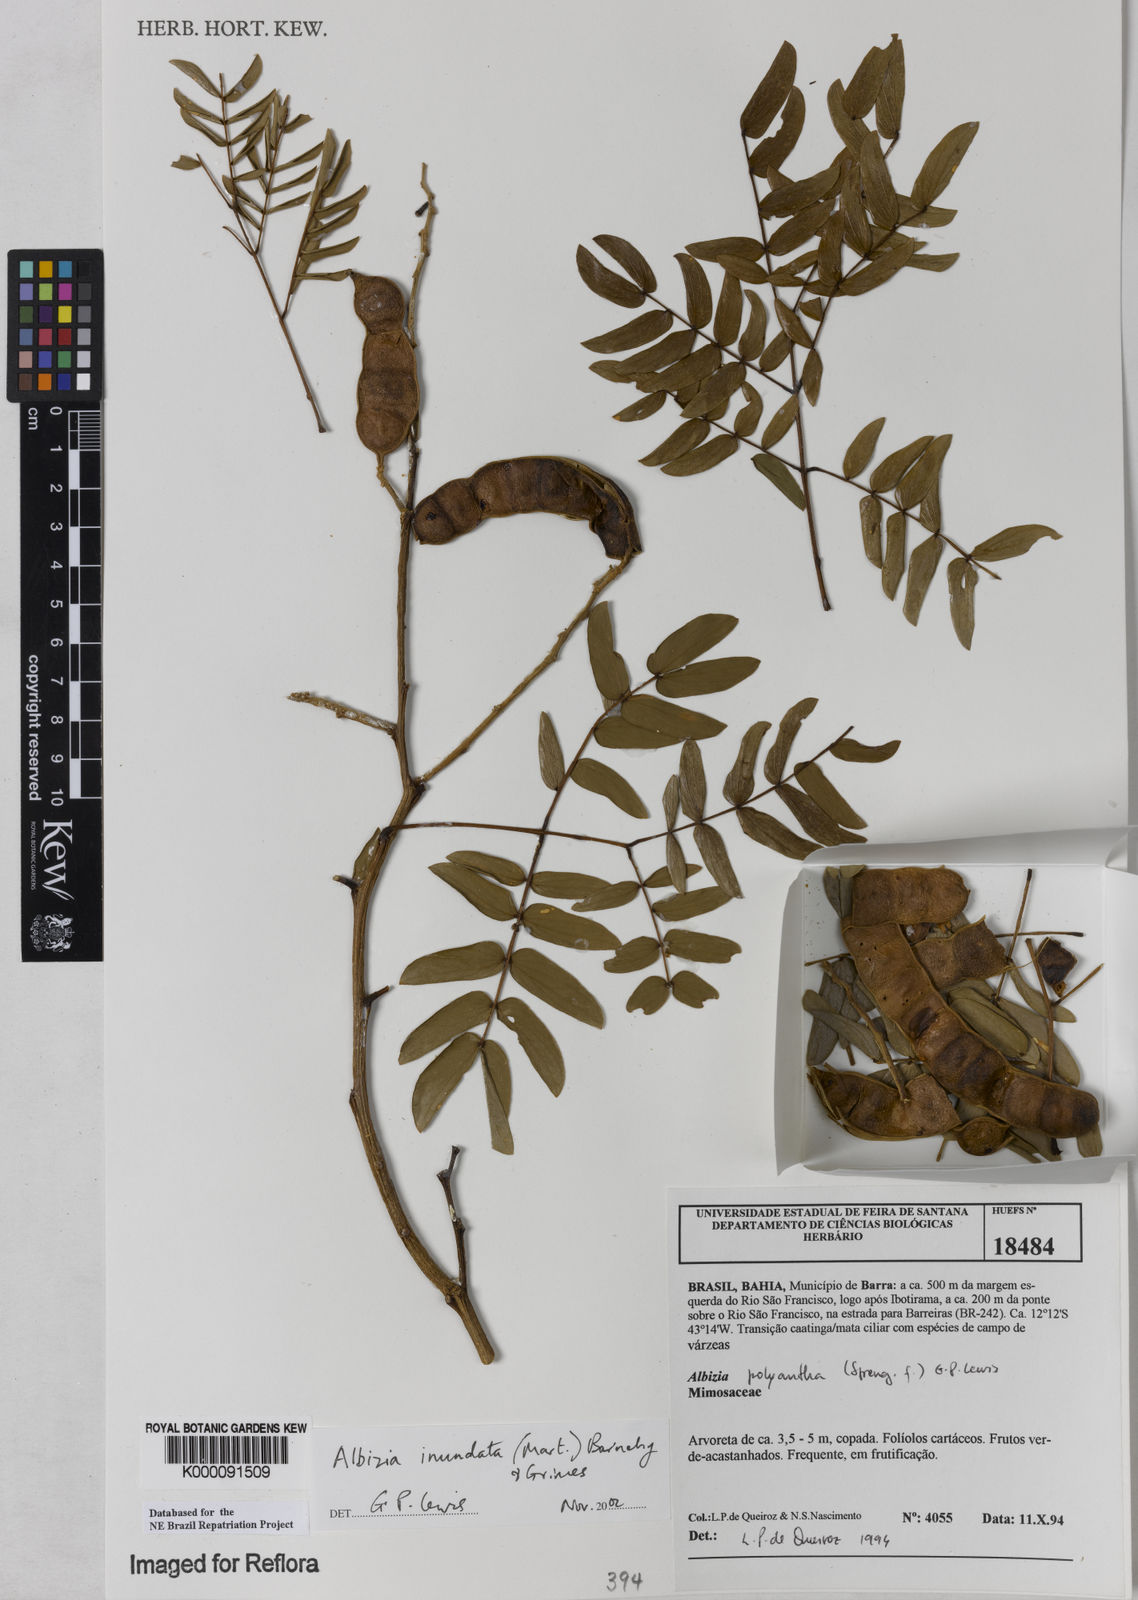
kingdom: Plantae
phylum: Tracheophyta
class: Magnoliopsida
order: Fabales
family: Fabaceae
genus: Albizia
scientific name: Albizia inundata
